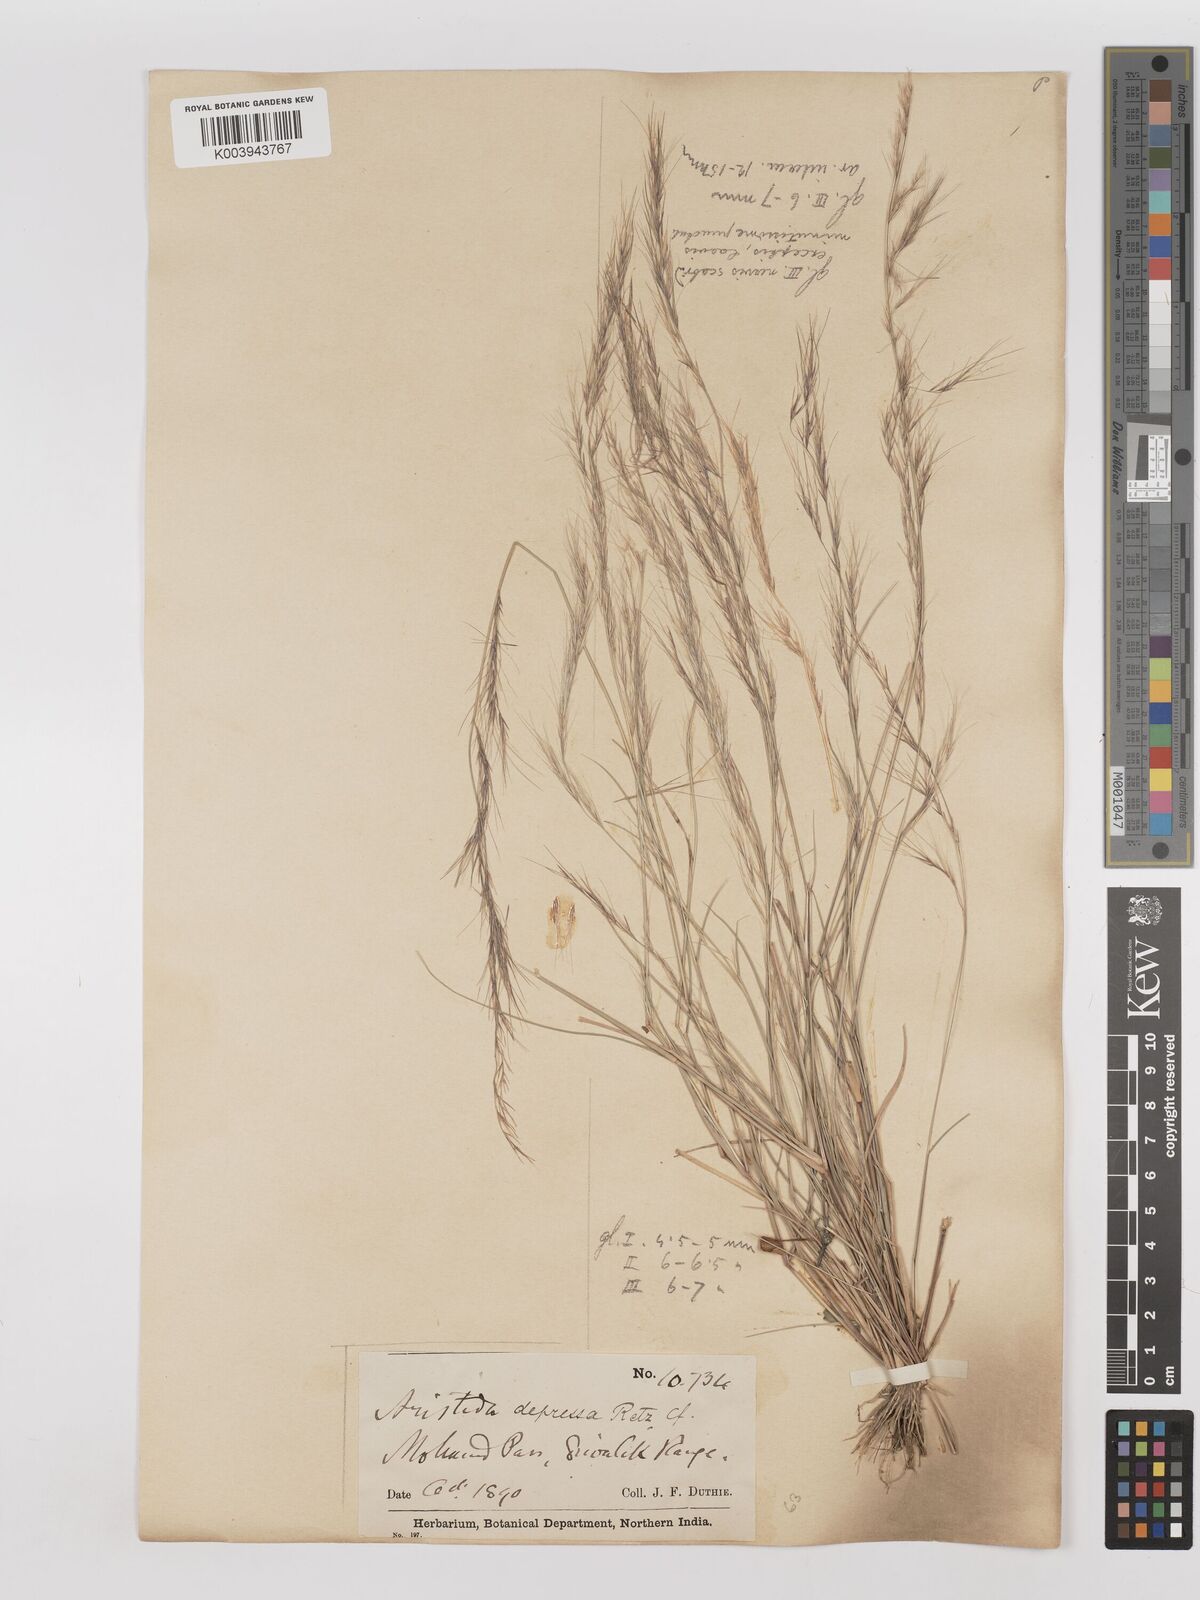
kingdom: Plantae
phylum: Tracheophyta
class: Liliopsida
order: Poales
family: Poaceae
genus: Aristida
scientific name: Aristida adscensionis
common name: Sixweeks threeawn
